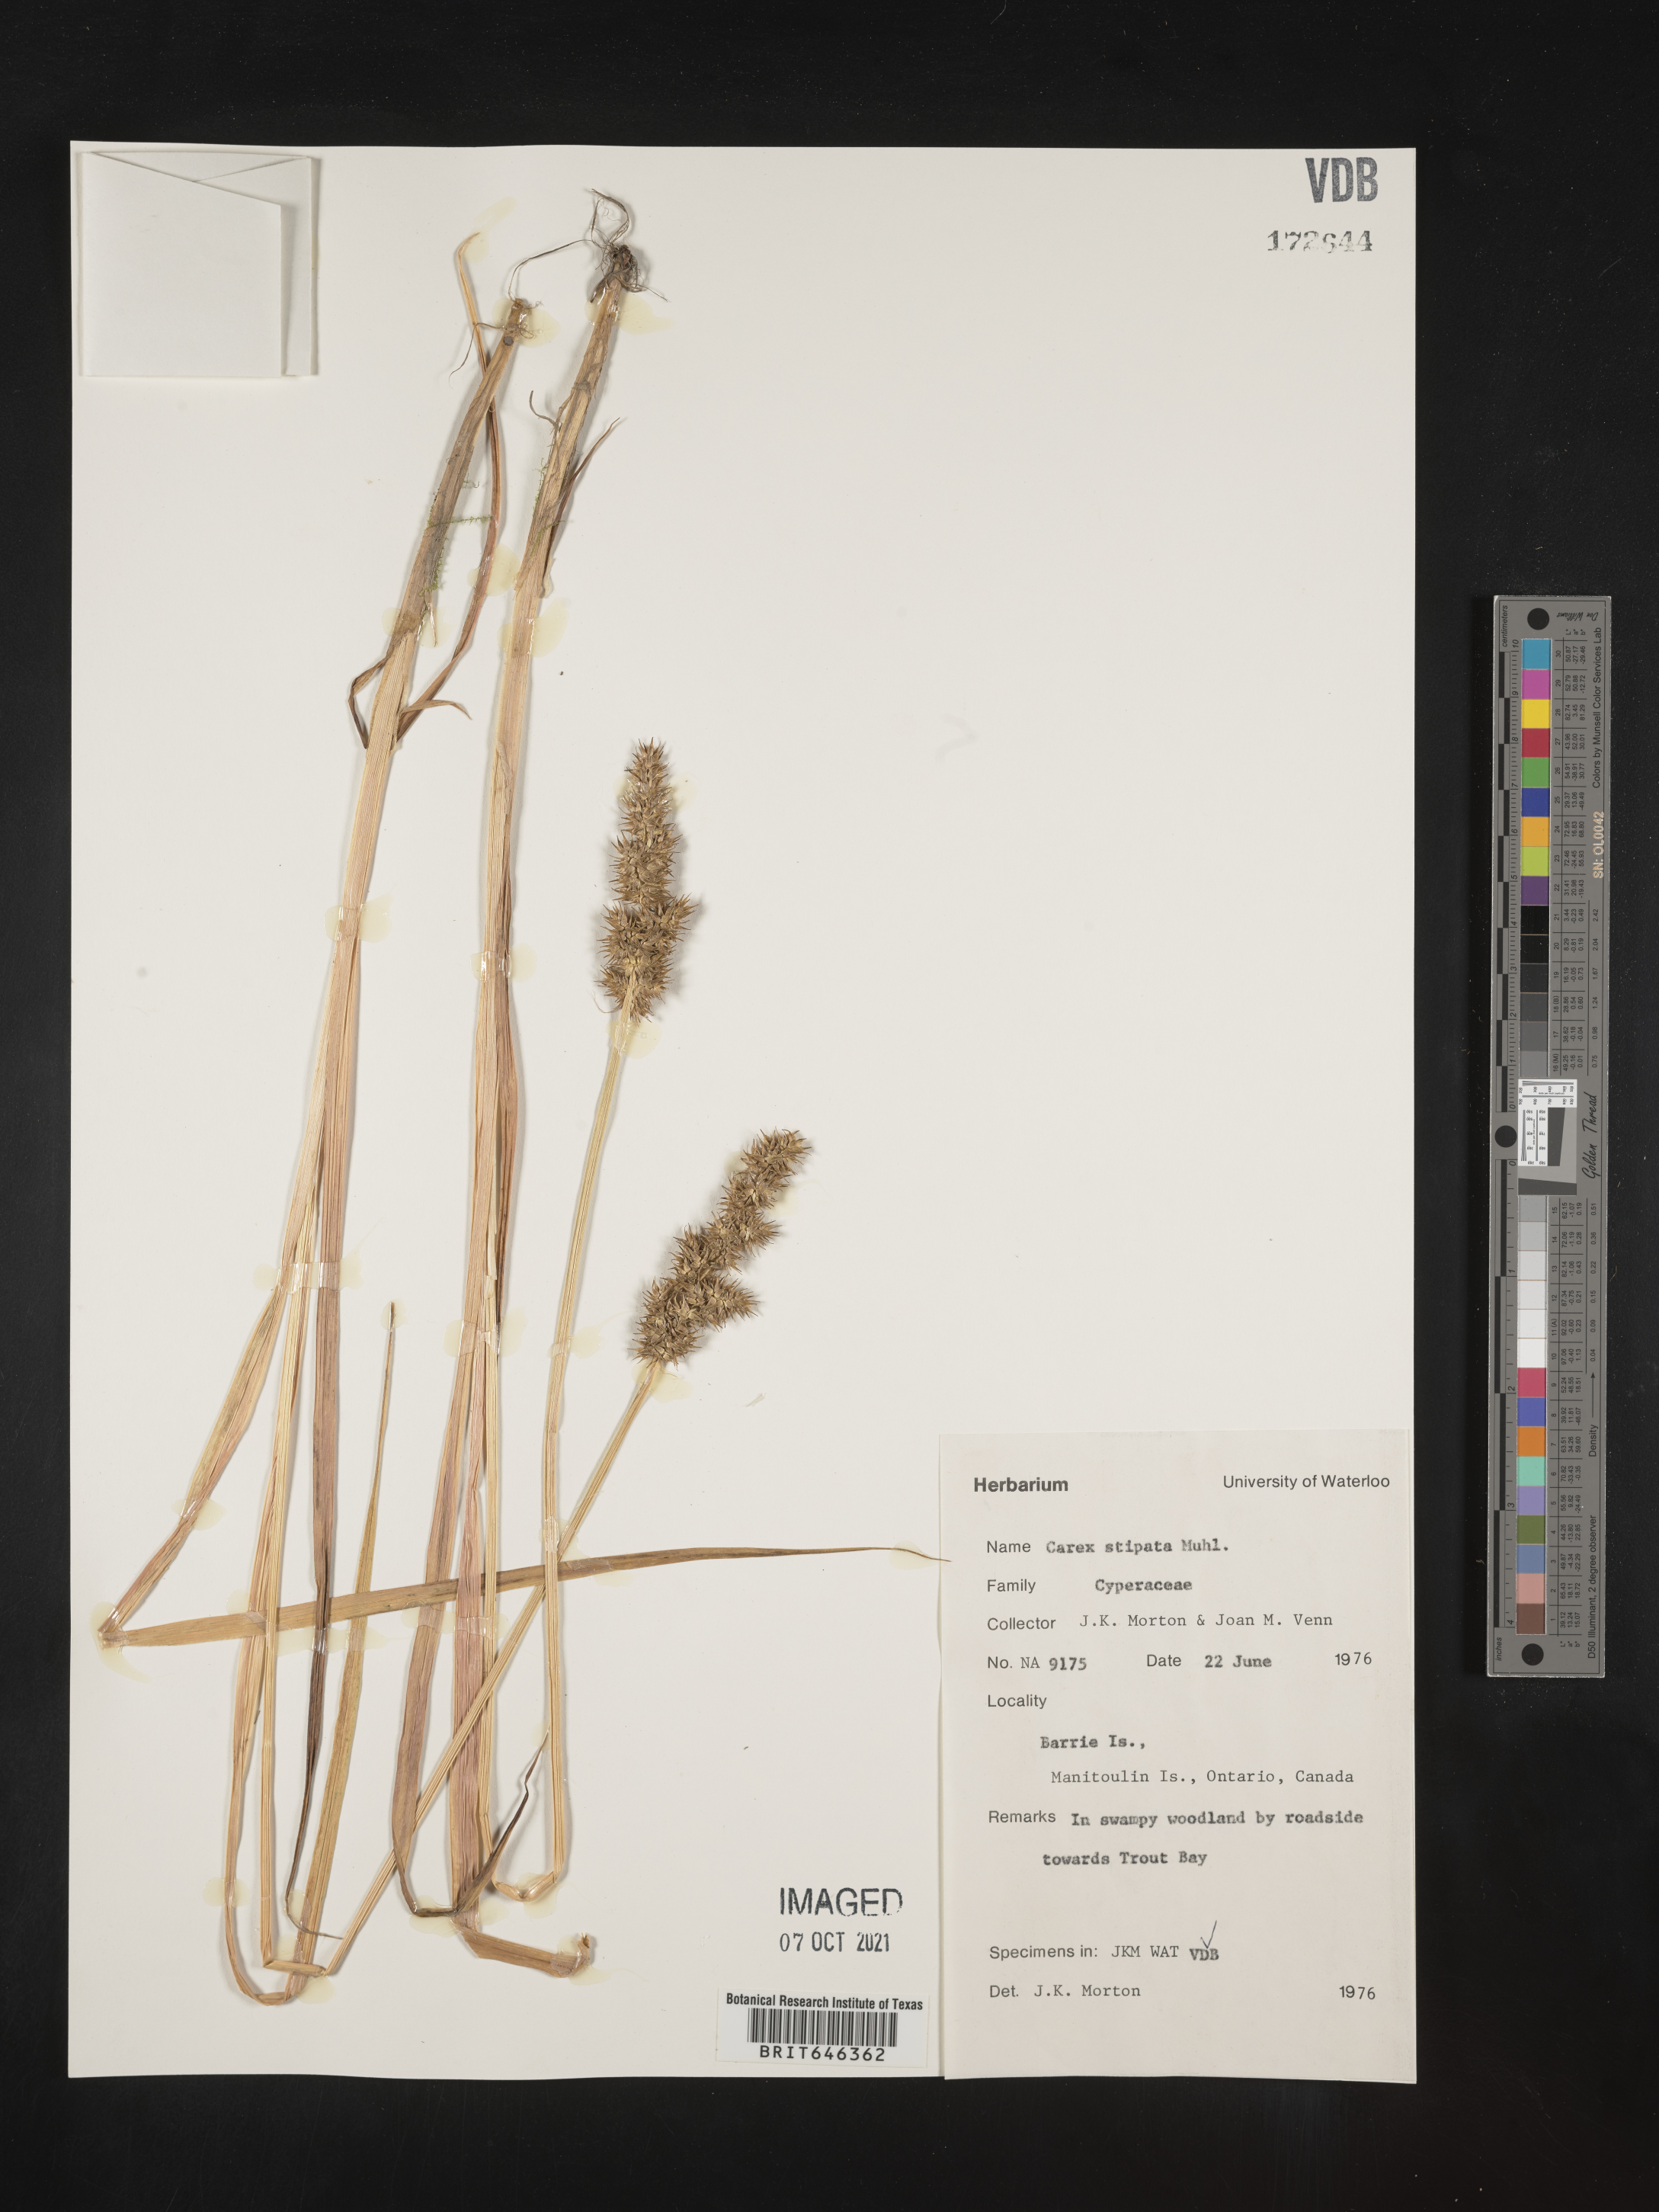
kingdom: Plantae
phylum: Tracheophyta
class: Liliopsida
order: Poales
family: Cyperaceae
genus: Carex
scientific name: Carex stipata
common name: Awl-fruited sedge
